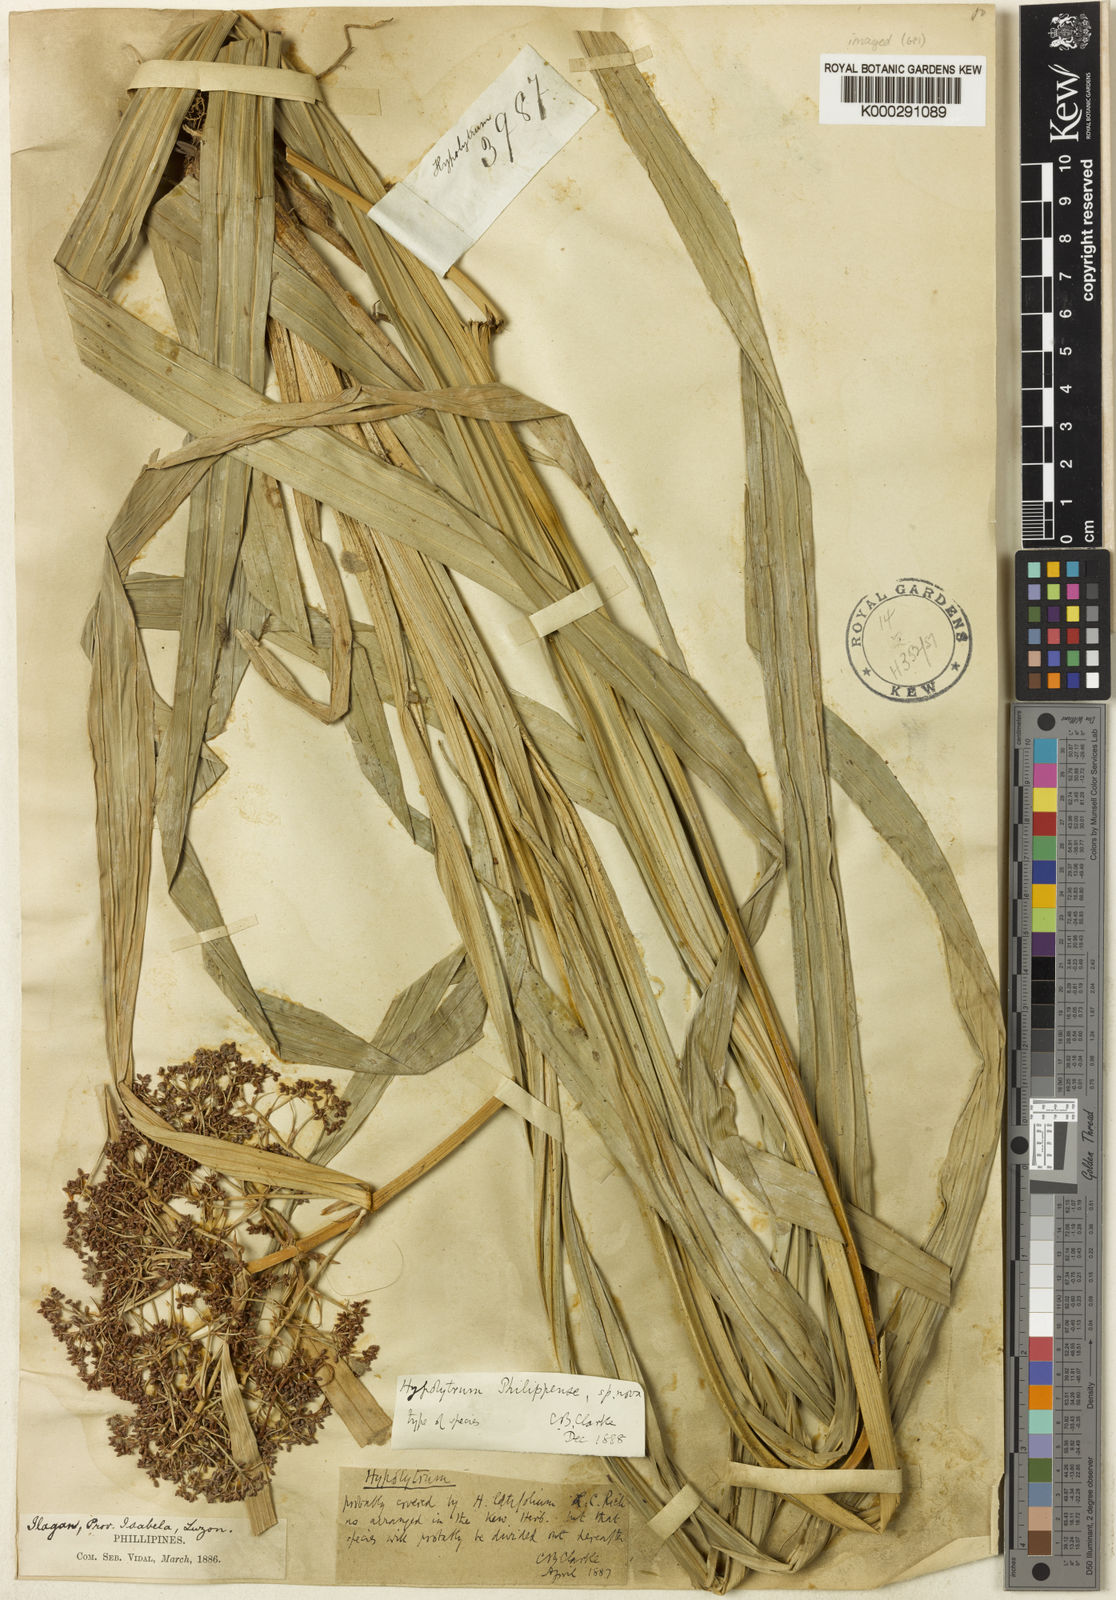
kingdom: Plantae
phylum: Tracheophyta
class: Liliopsida
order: Poales
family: Cyperaceae
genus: Hypolytrum
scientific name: Hypolytrum nemorum
